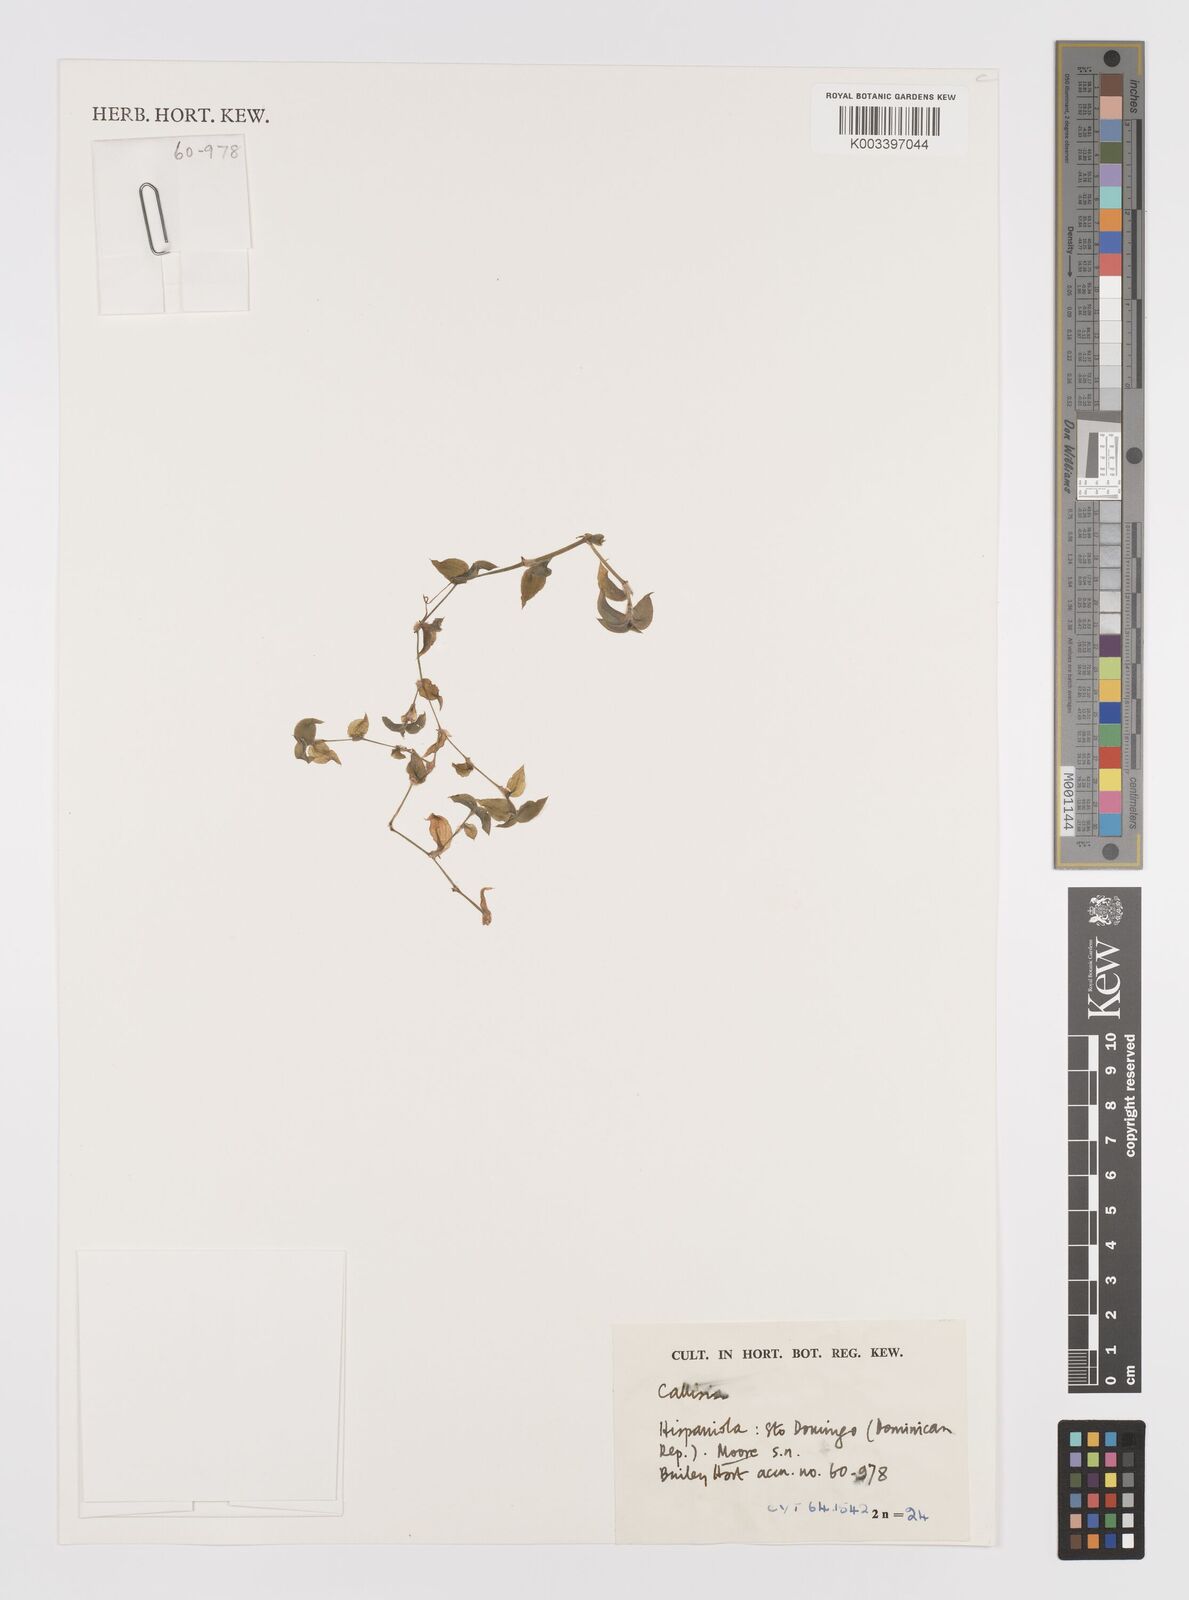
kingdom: Plantae
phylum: Tracheophyta
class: Liliopsida
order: Commelinales
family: Commelinaceae
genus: Callisia
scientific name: Callisia
